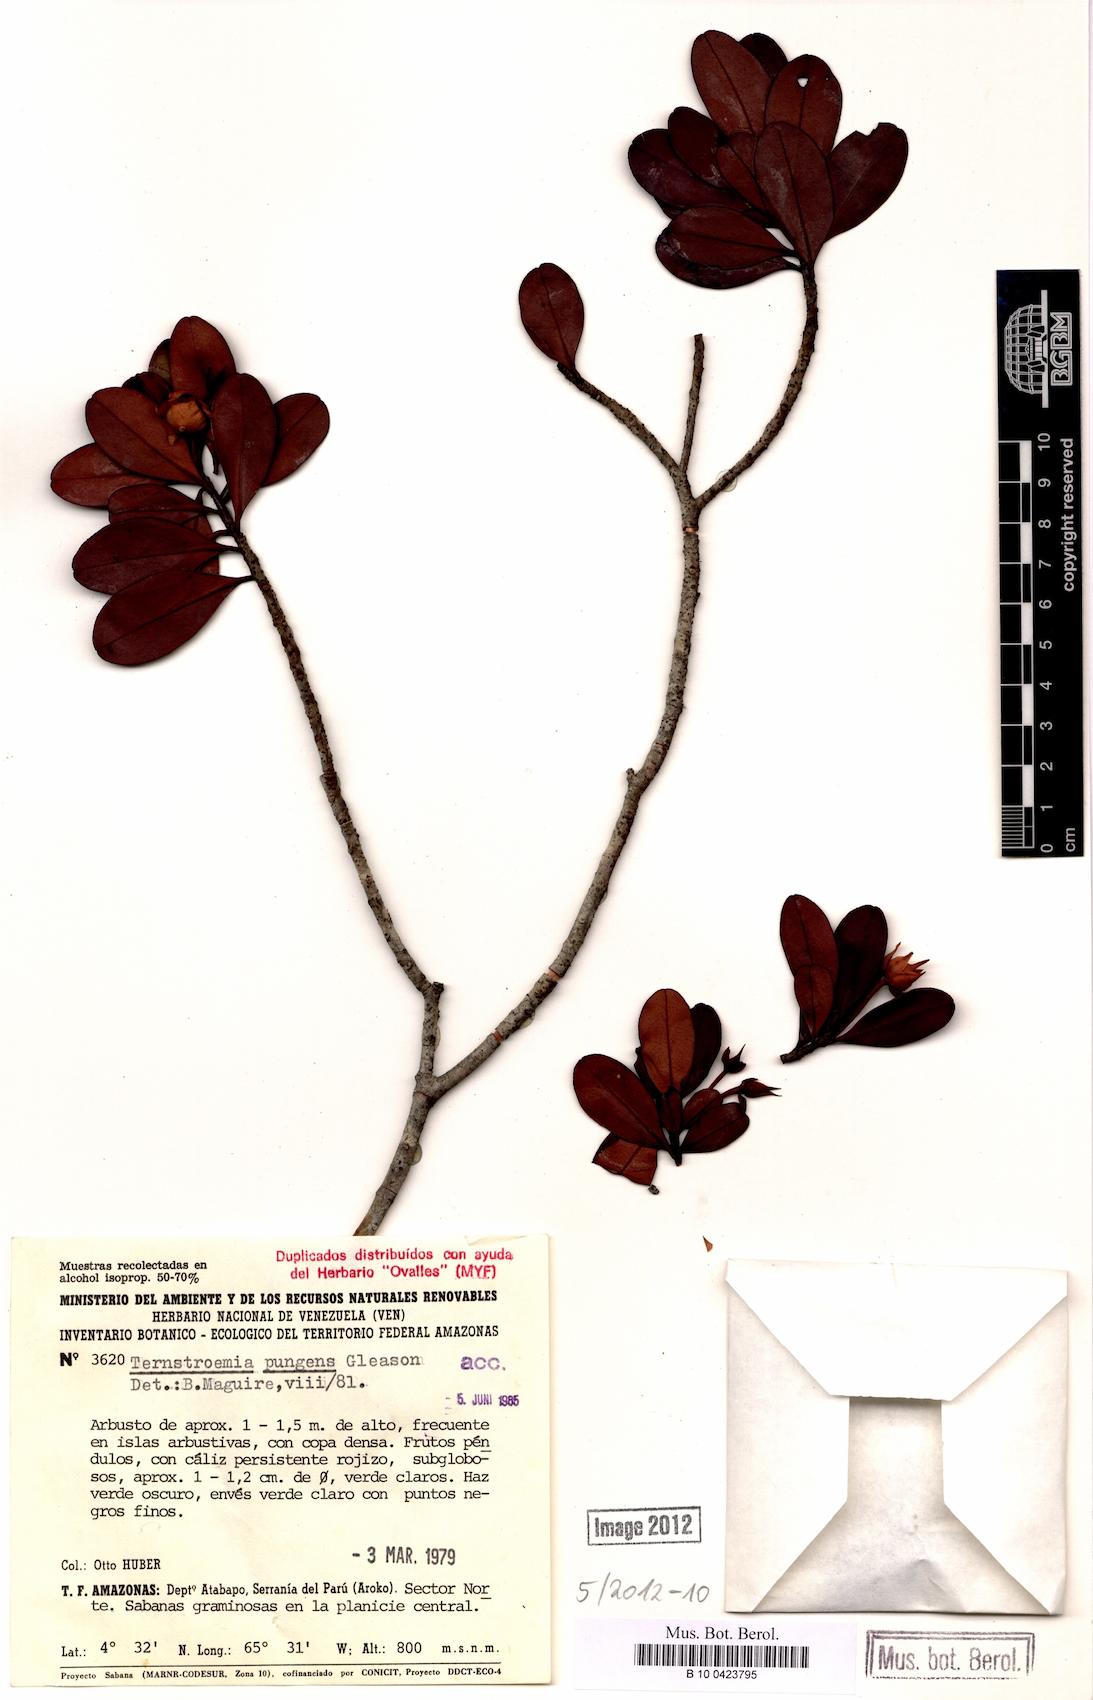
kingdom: Plantae
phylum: Tracheophyta
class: Magnoliopsida
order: Ericales
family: Pentaphylacaceae
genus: Ternstroemia
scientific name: Ternstroemia pungens
